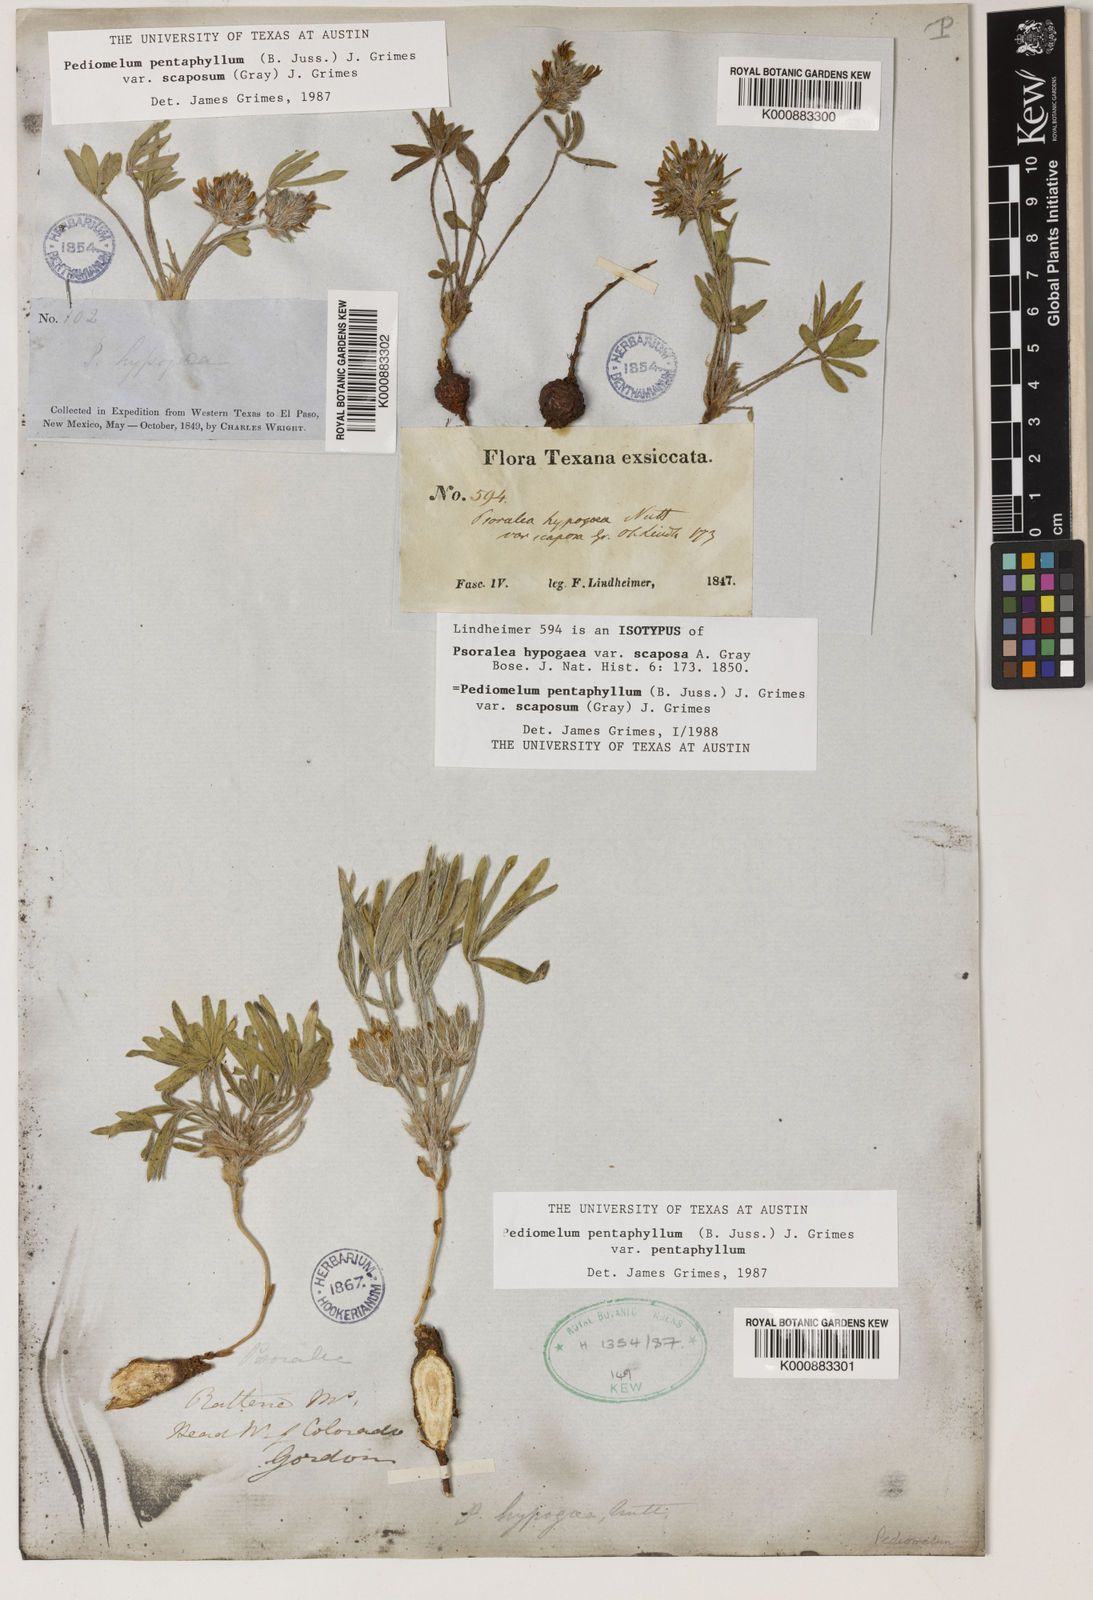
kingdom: Plantae
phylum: Tracheophyta
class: Magnoliopsida
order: Fabales
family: Fabaceae
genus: Pediomelum
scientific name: Pediomelum hypogaeum
